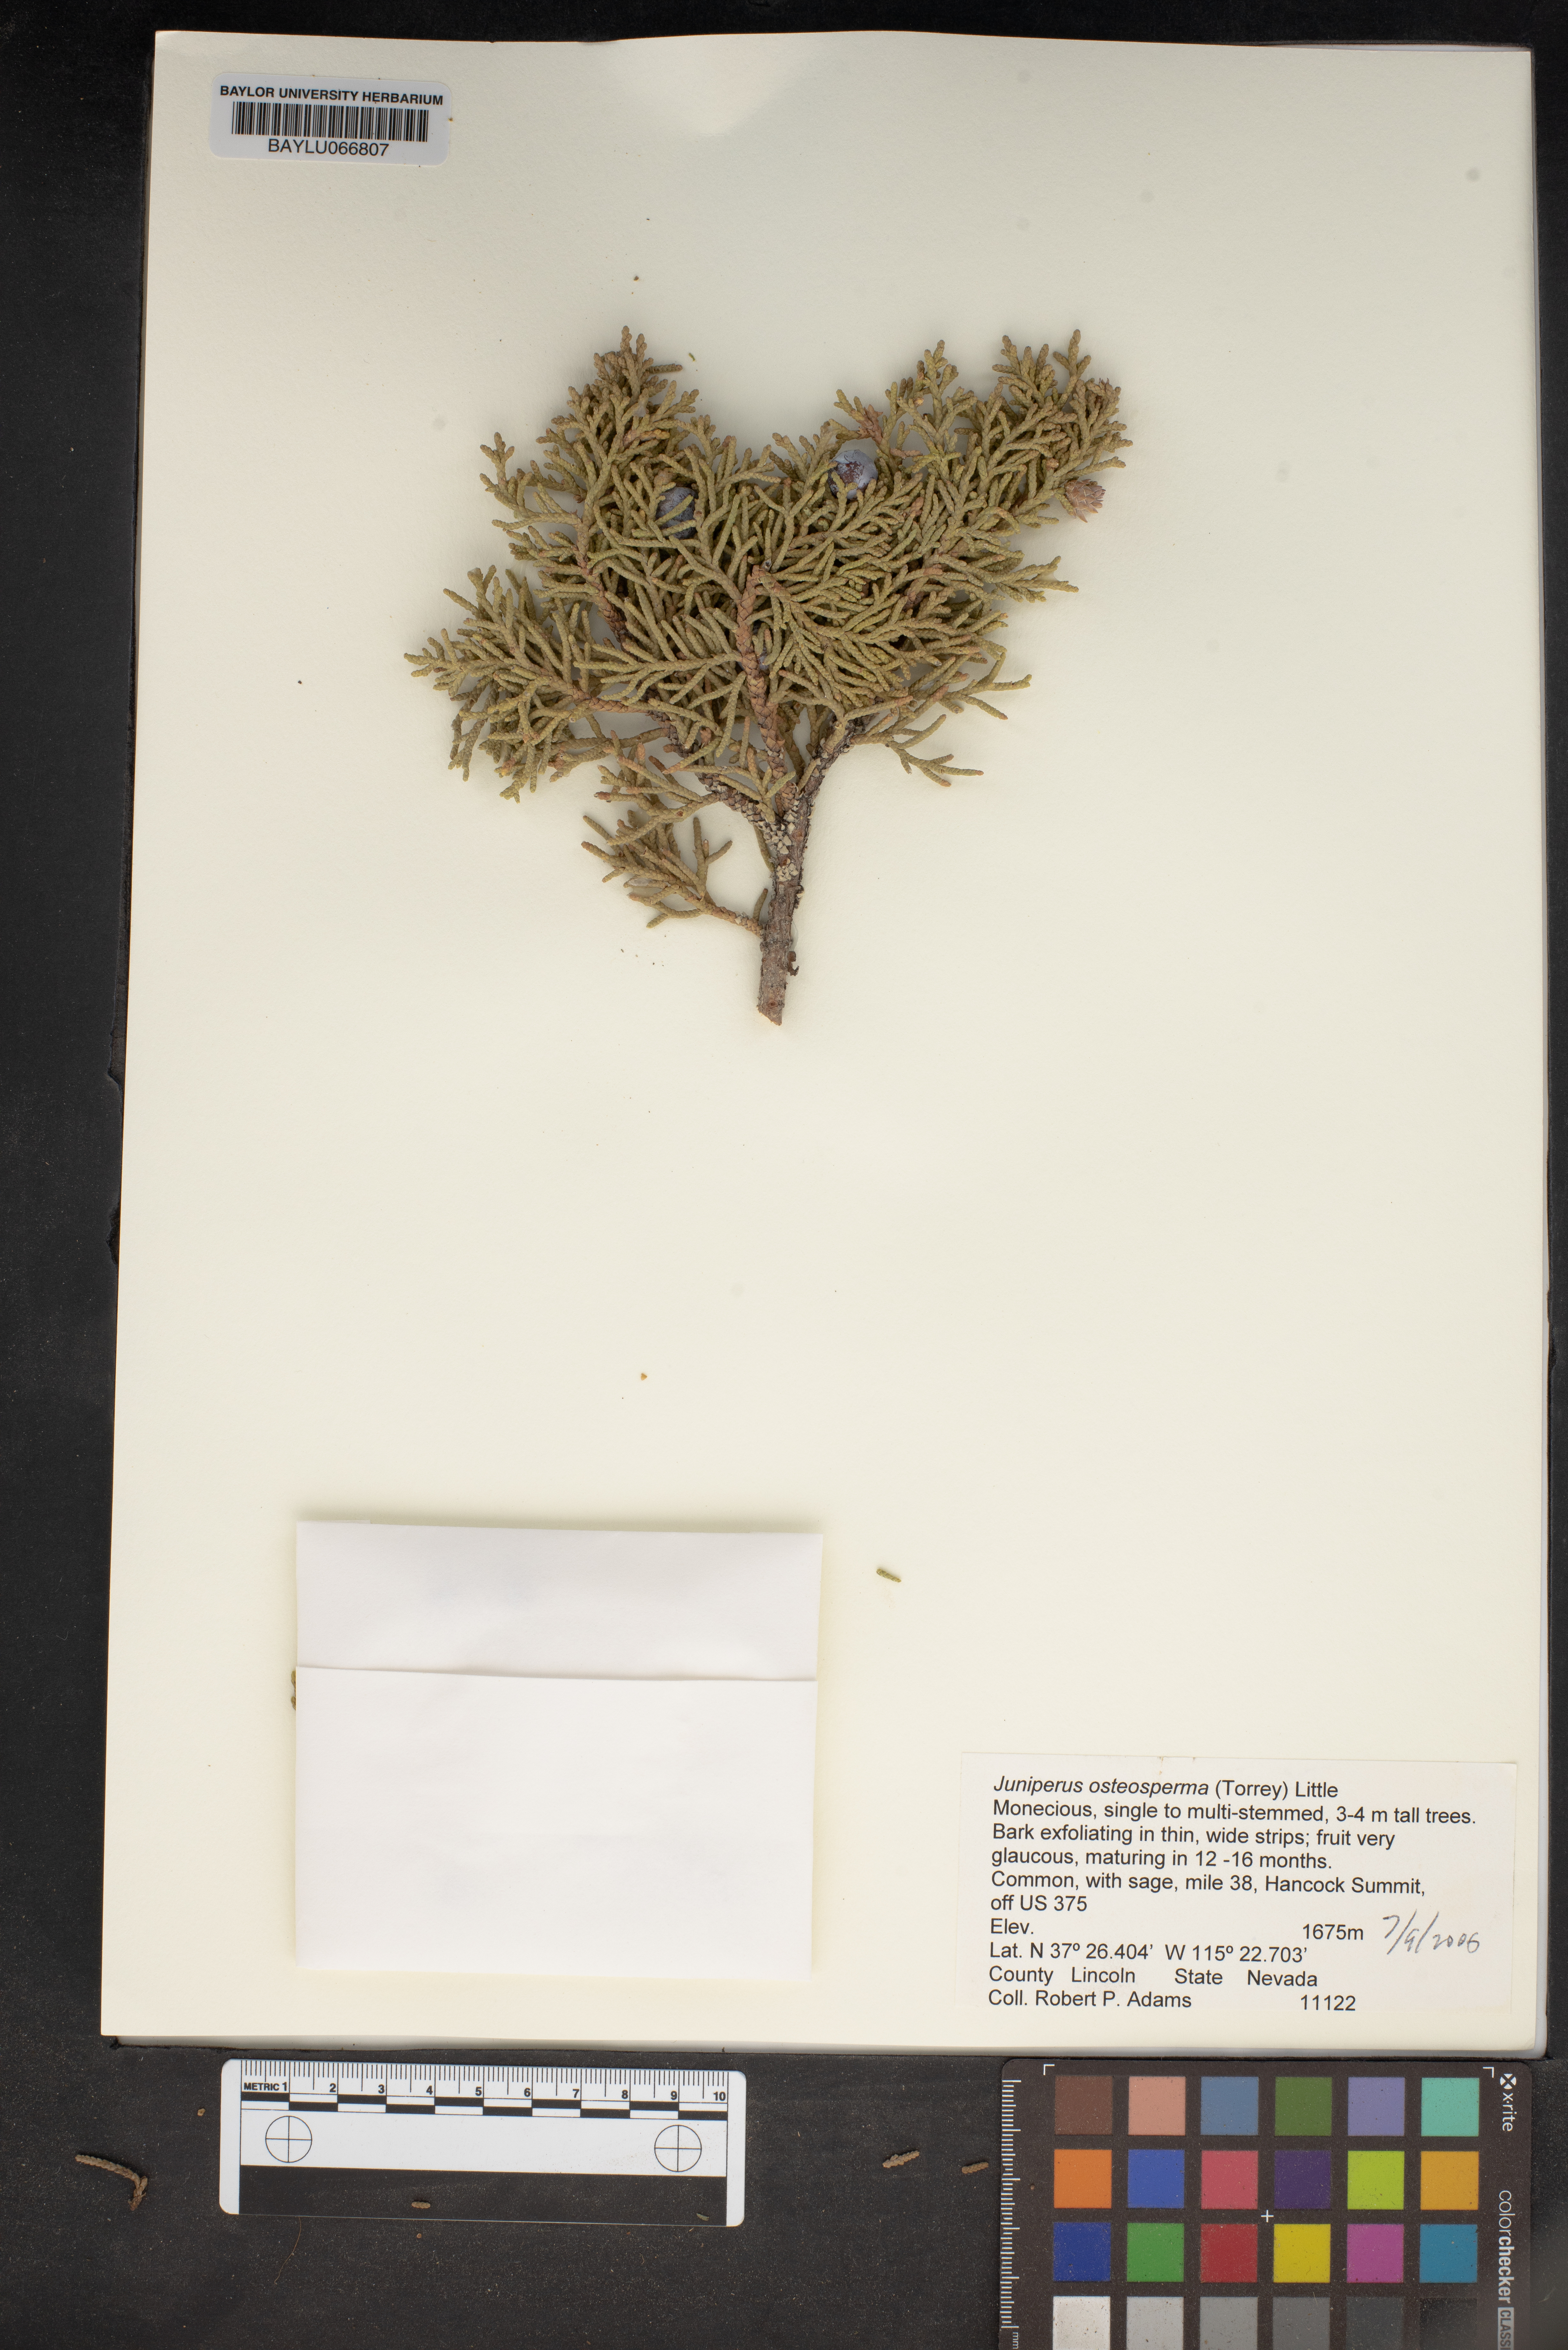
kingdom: Plantae
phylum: Tracheophyta
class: Pinopsida
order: Pinales
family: Cupressaceae
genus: Juniperus
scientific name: Juniperus osteosperma
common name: Utah juniper
